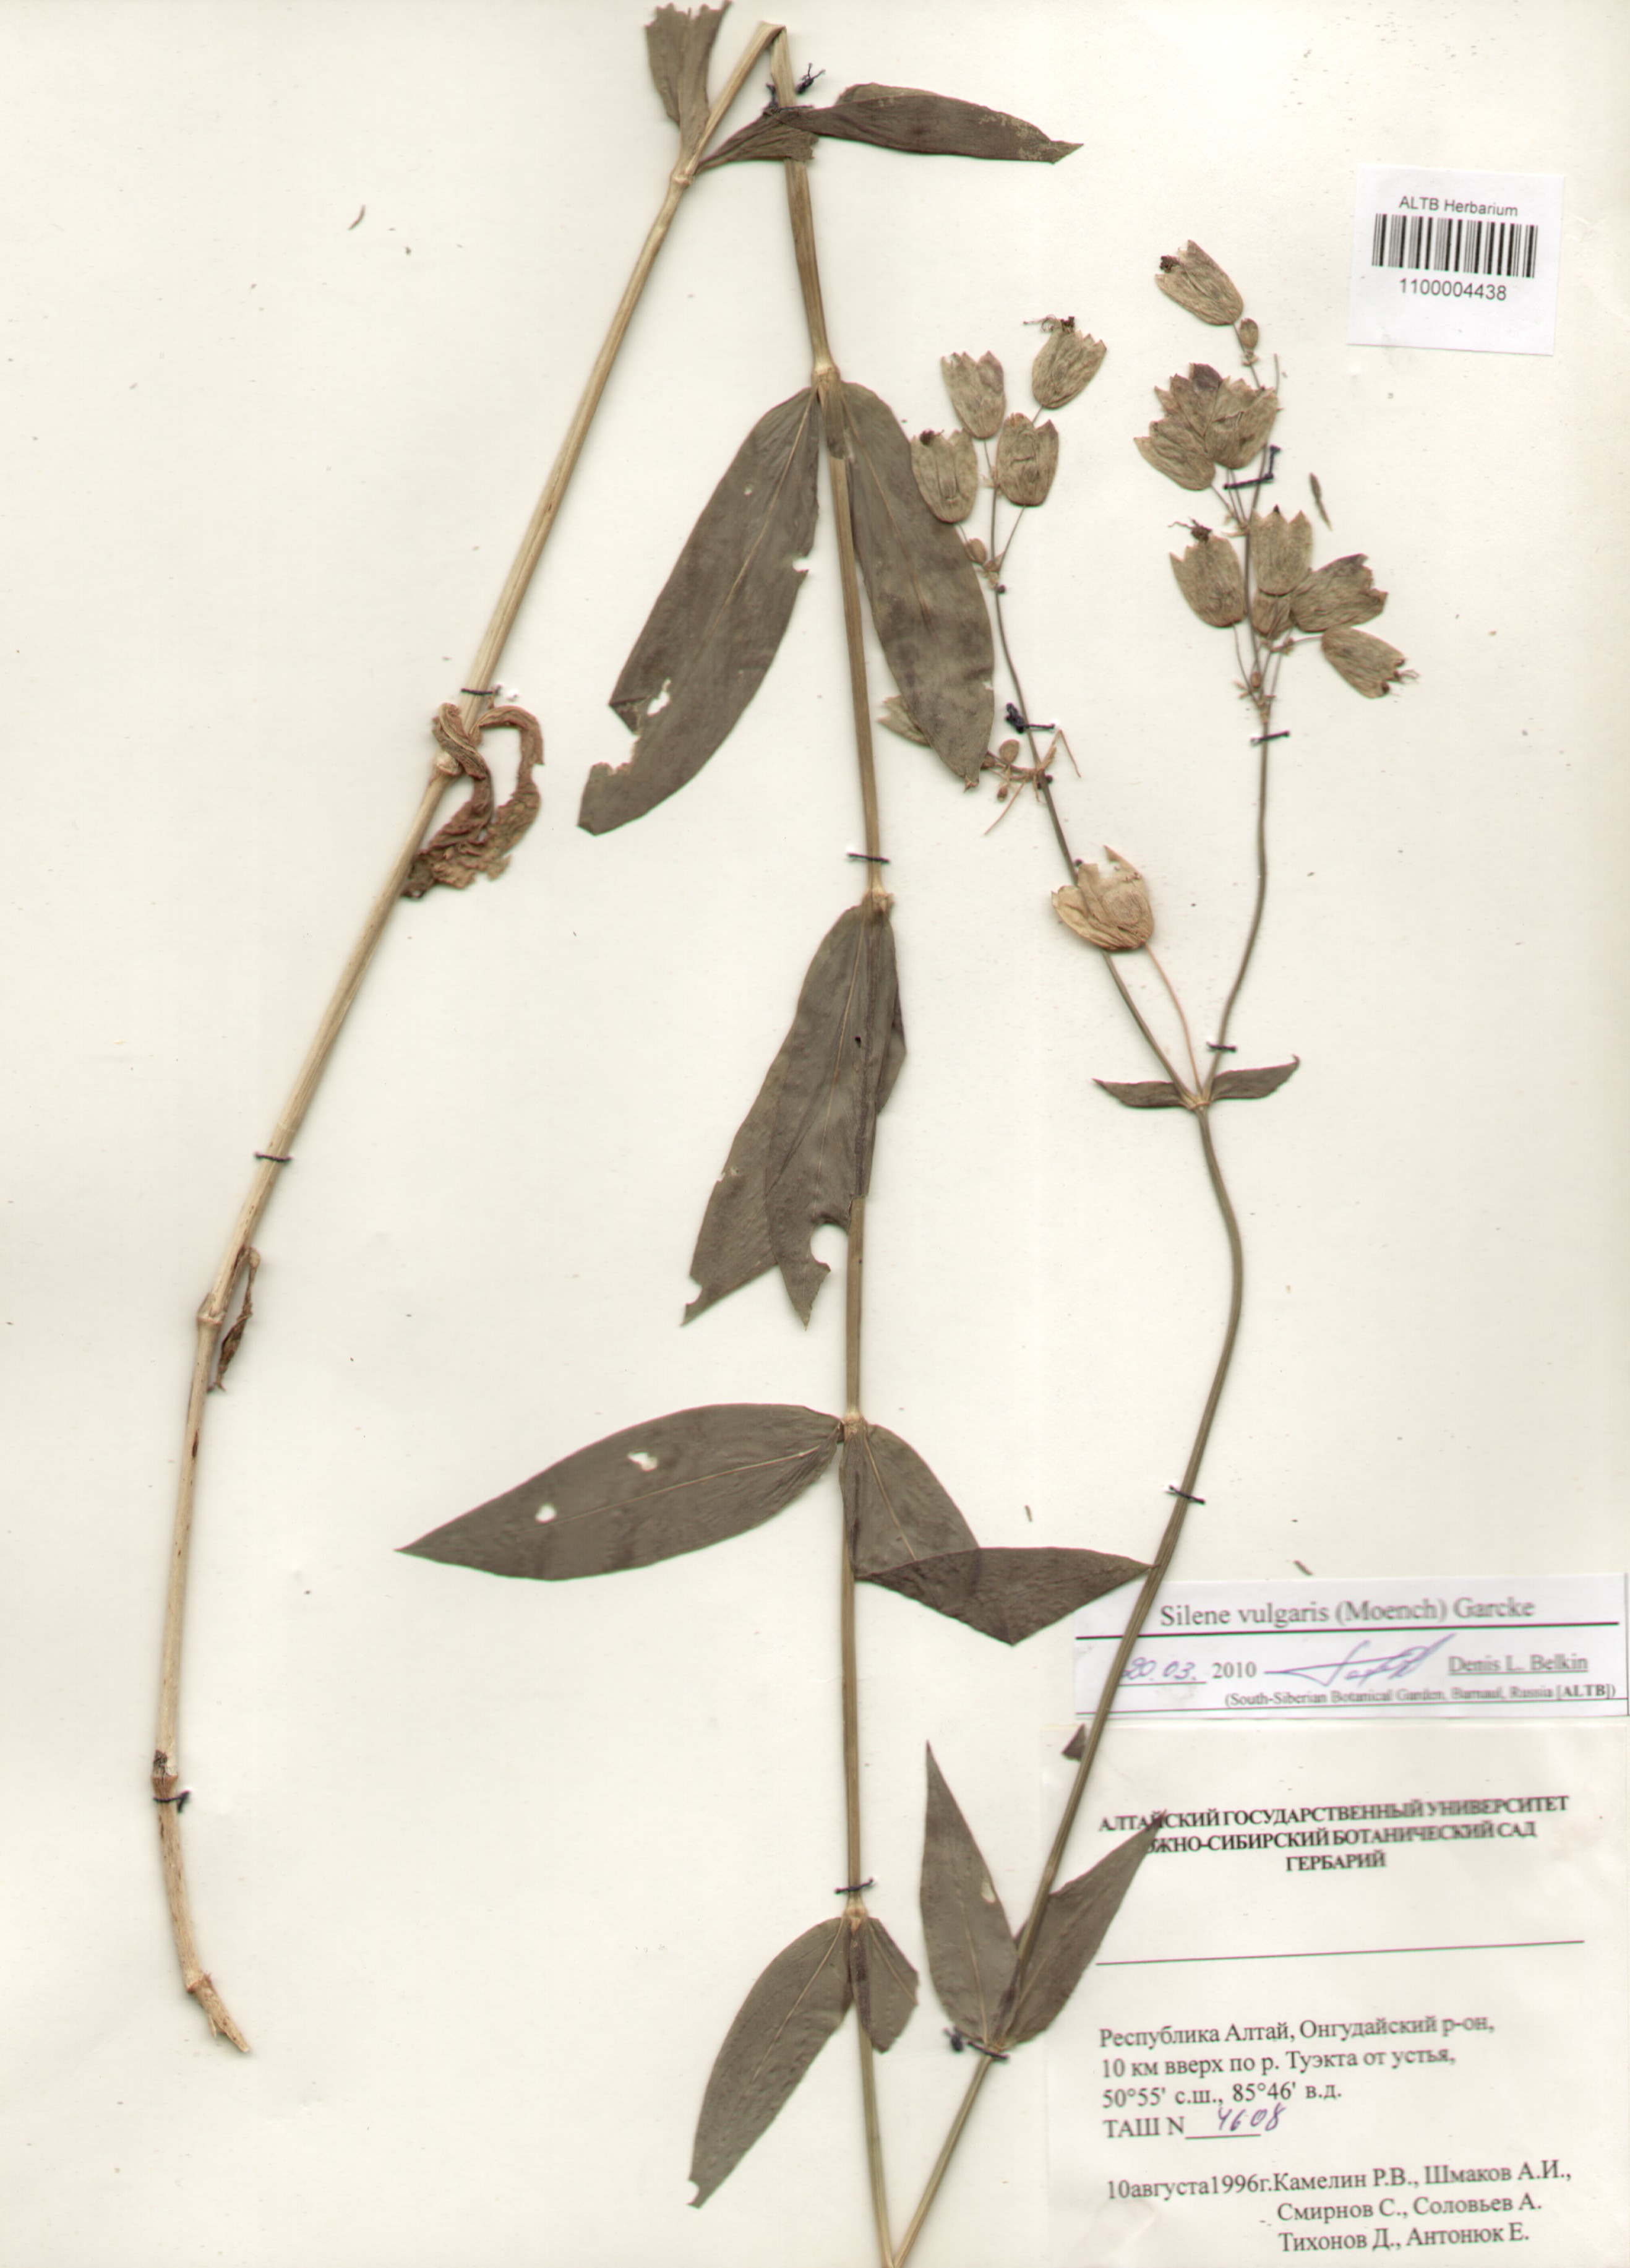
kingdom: Plantae
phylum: Tracheophyta
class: Magnoliopsida
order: Caryophyllales
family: Caryophyllaceae
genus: Silene
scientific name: Silene vulgaris
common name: Bladder campion
